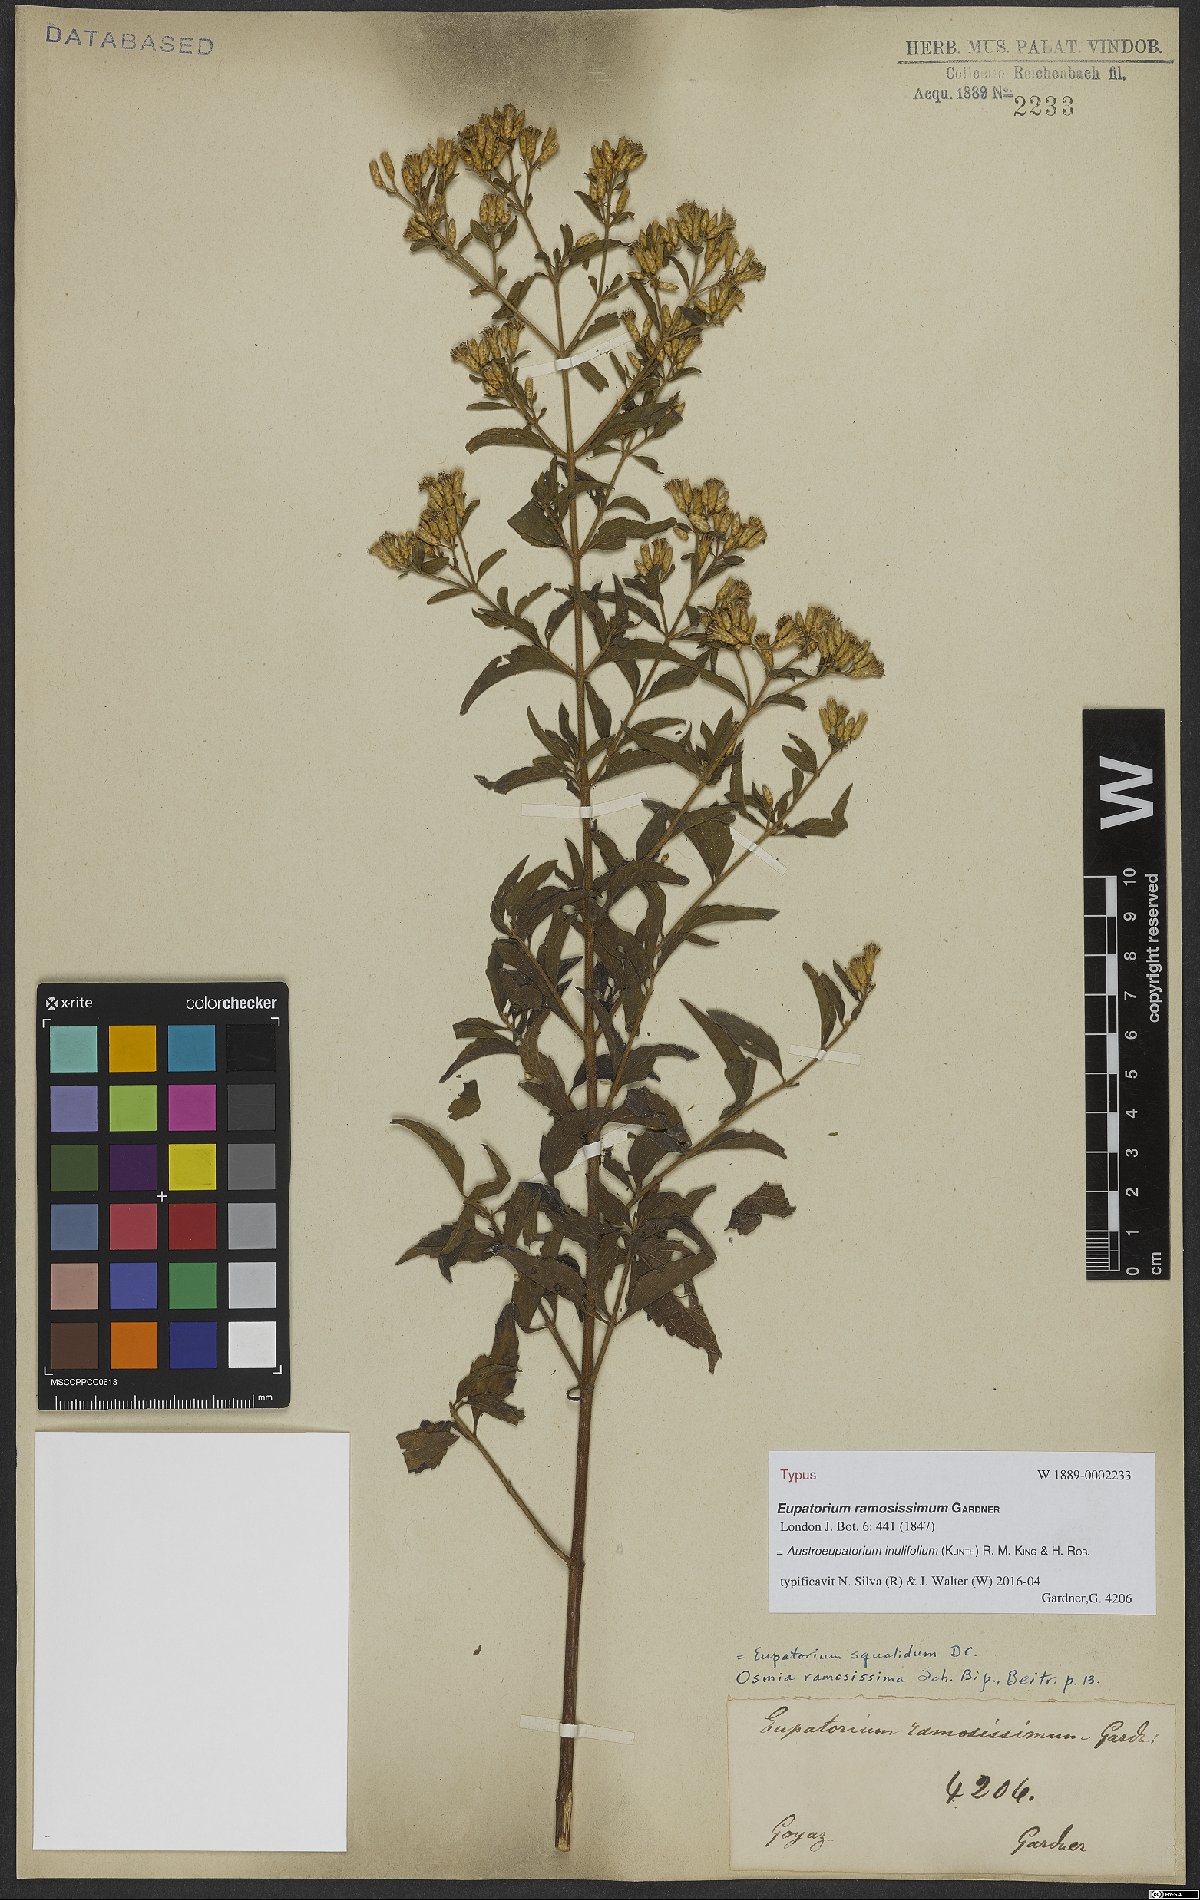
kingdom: Plantae
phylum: Tracheophyta
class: Magnoliopsida
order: Asterales
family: Asteraceae
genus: Austroeupatorium
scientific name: Austroeupatorium inulifolium
